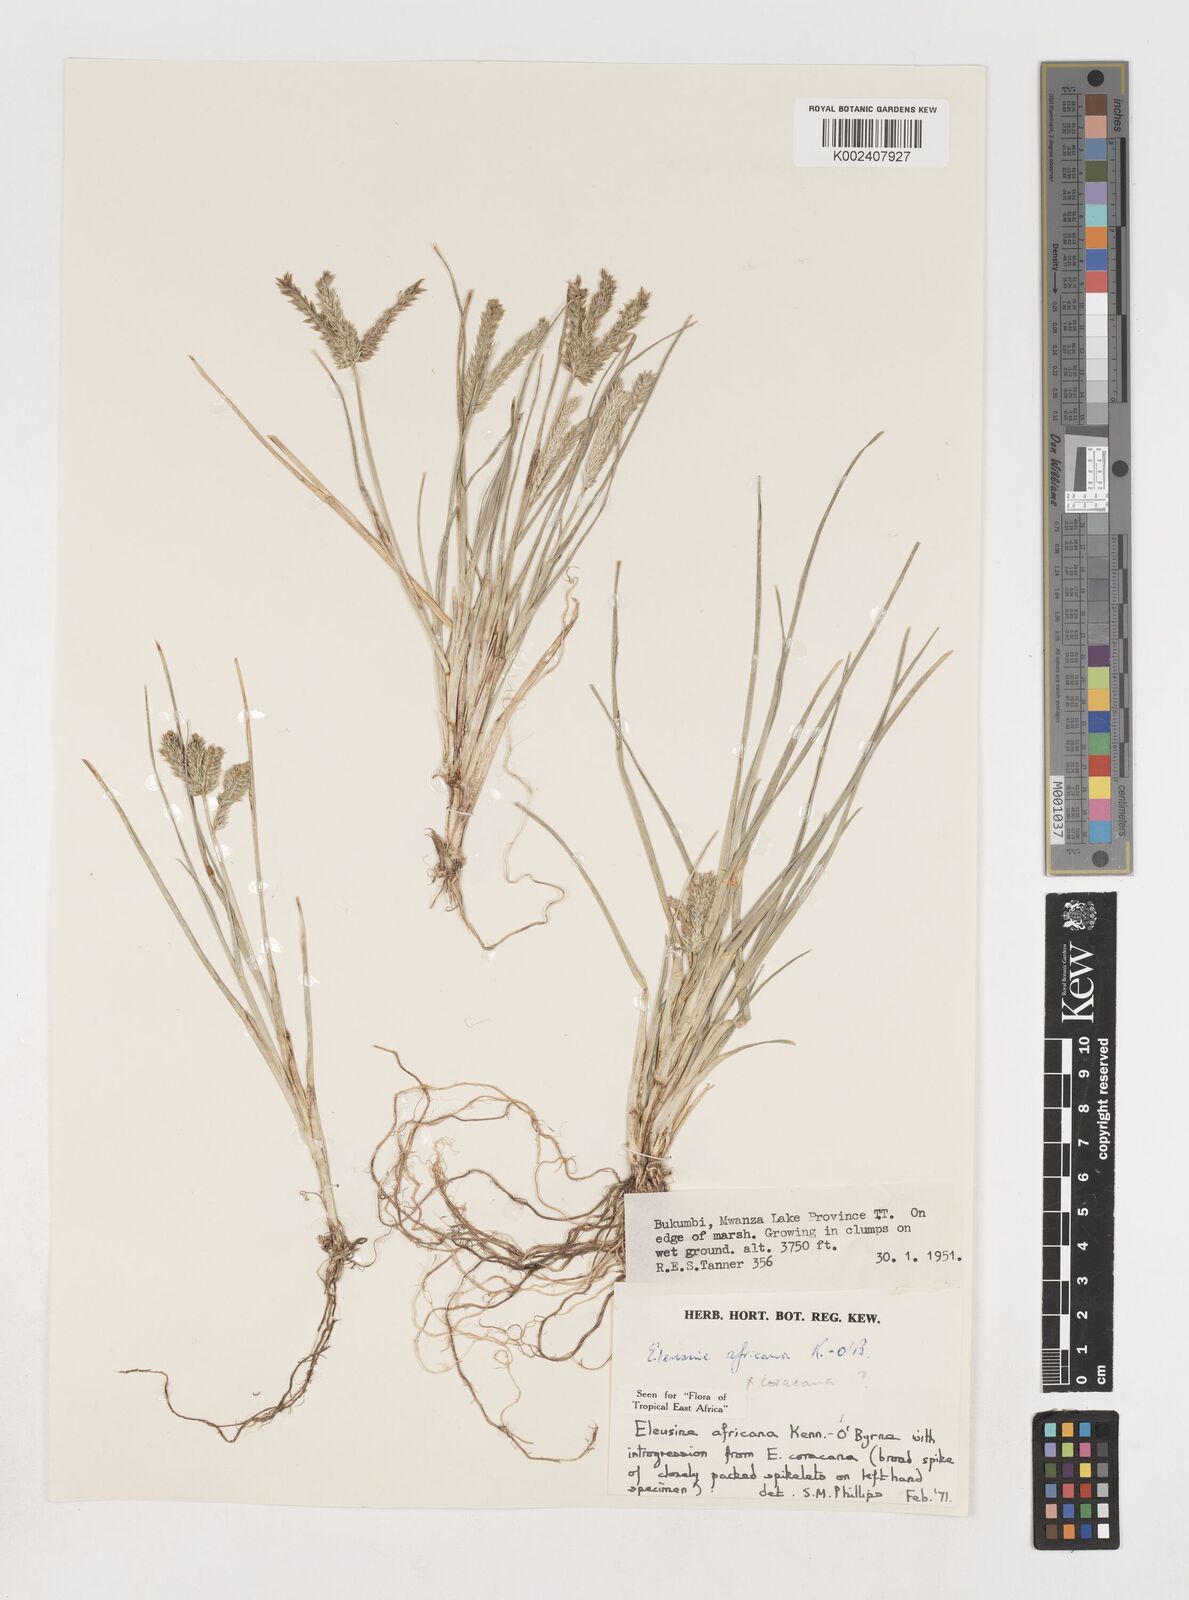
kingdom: Plantae
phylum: Tracheophyta
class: Liliopsida
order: Poales
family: Poaceae
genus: Eleusine
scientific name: Eleusine africana
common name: Wild african finger millet
